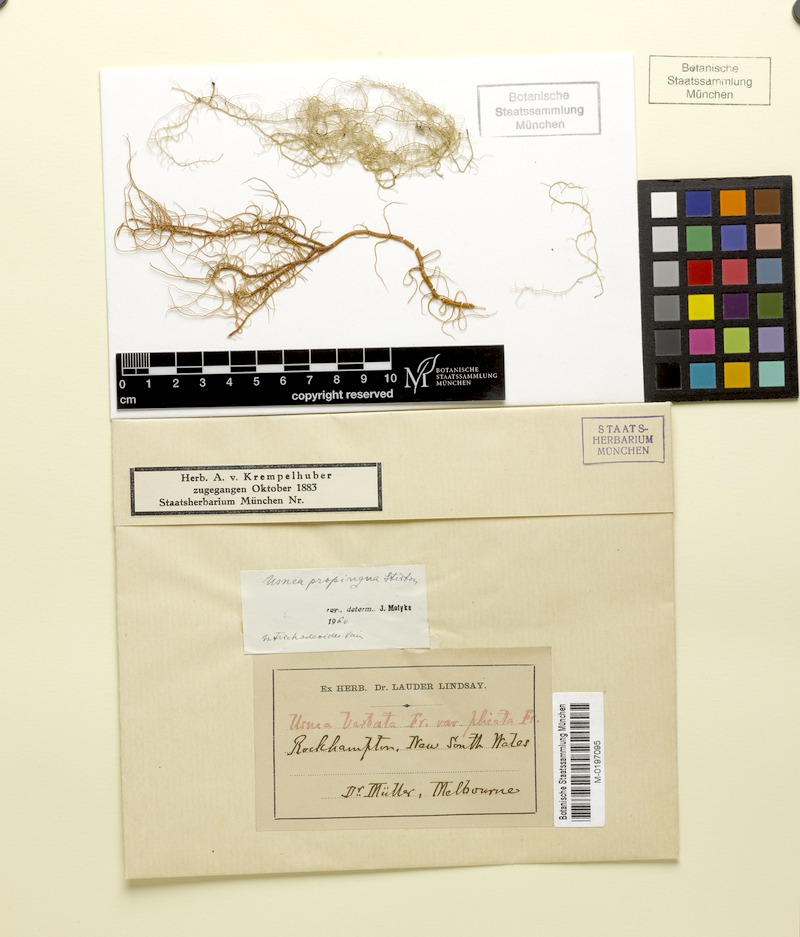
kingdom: Fungi
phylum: Ascomycota
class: Lecanoromycetes
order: Lecanorales
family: Parmeliaceae
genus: Usnea
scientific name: Usnea nidifica
